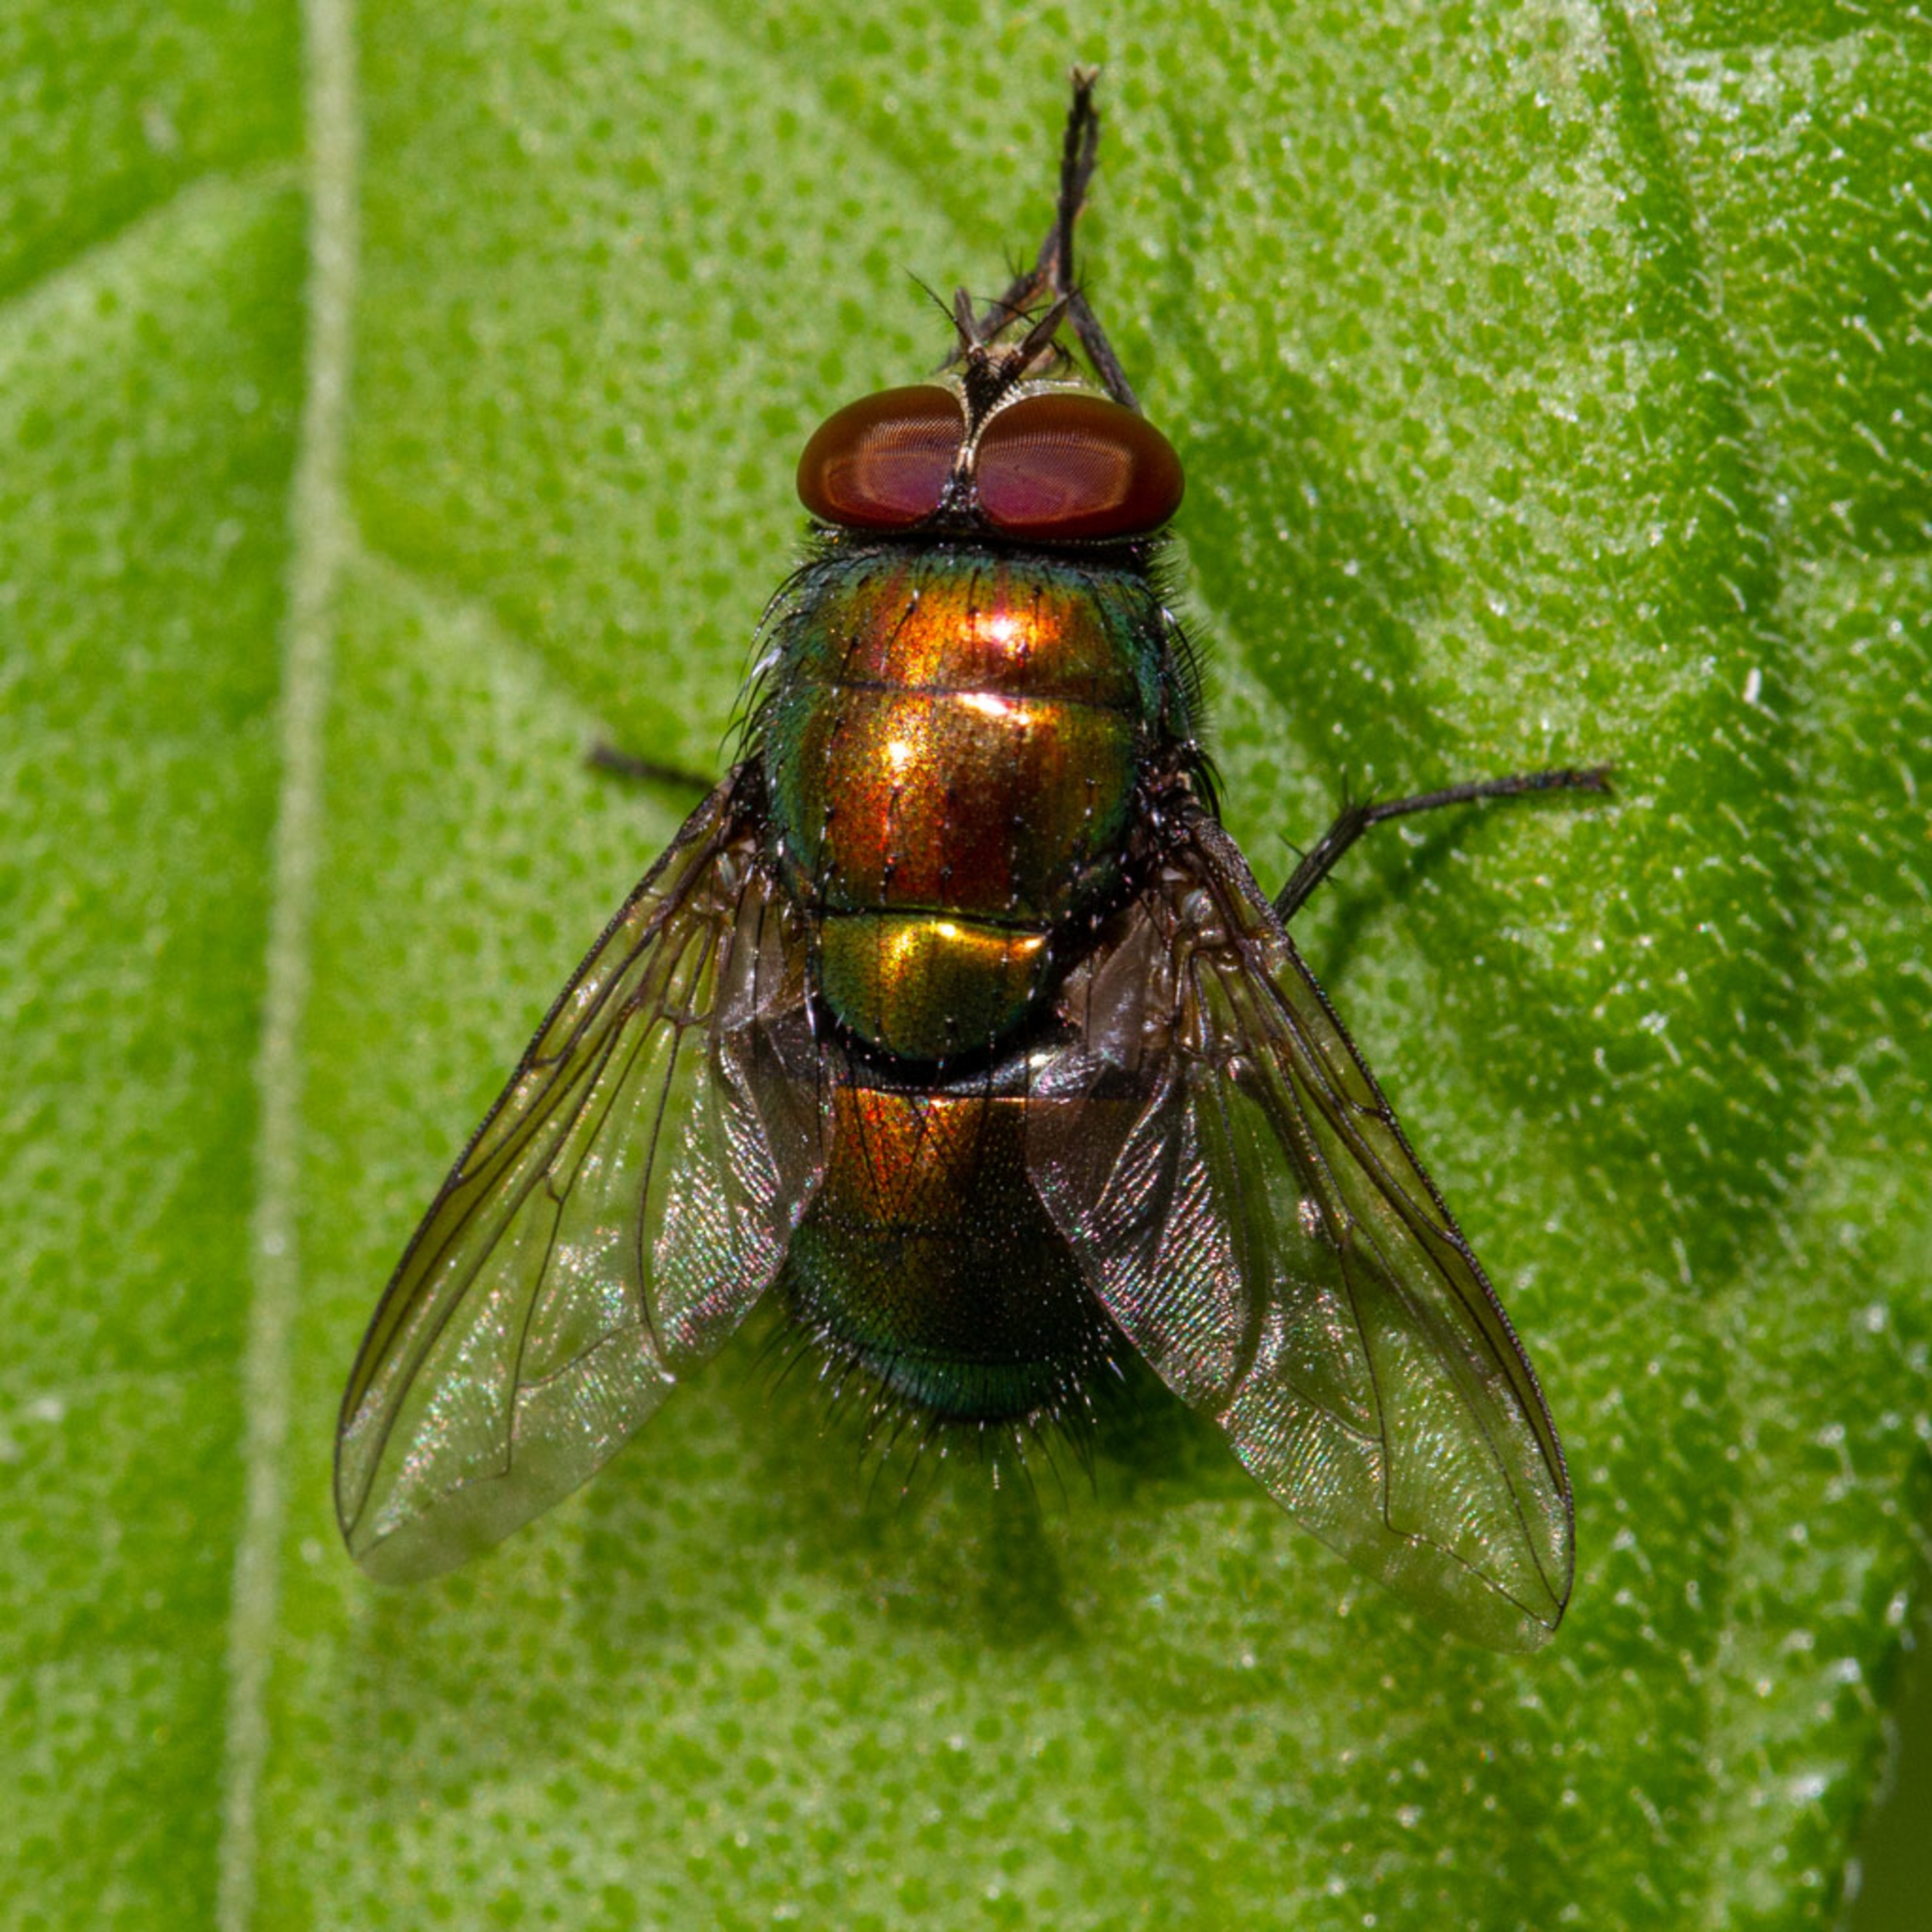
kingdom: Animalia
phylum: Arthropoda
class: Insecta
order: Diptera
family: Calliphoridae
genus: Lucilia
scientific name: Lucilia
